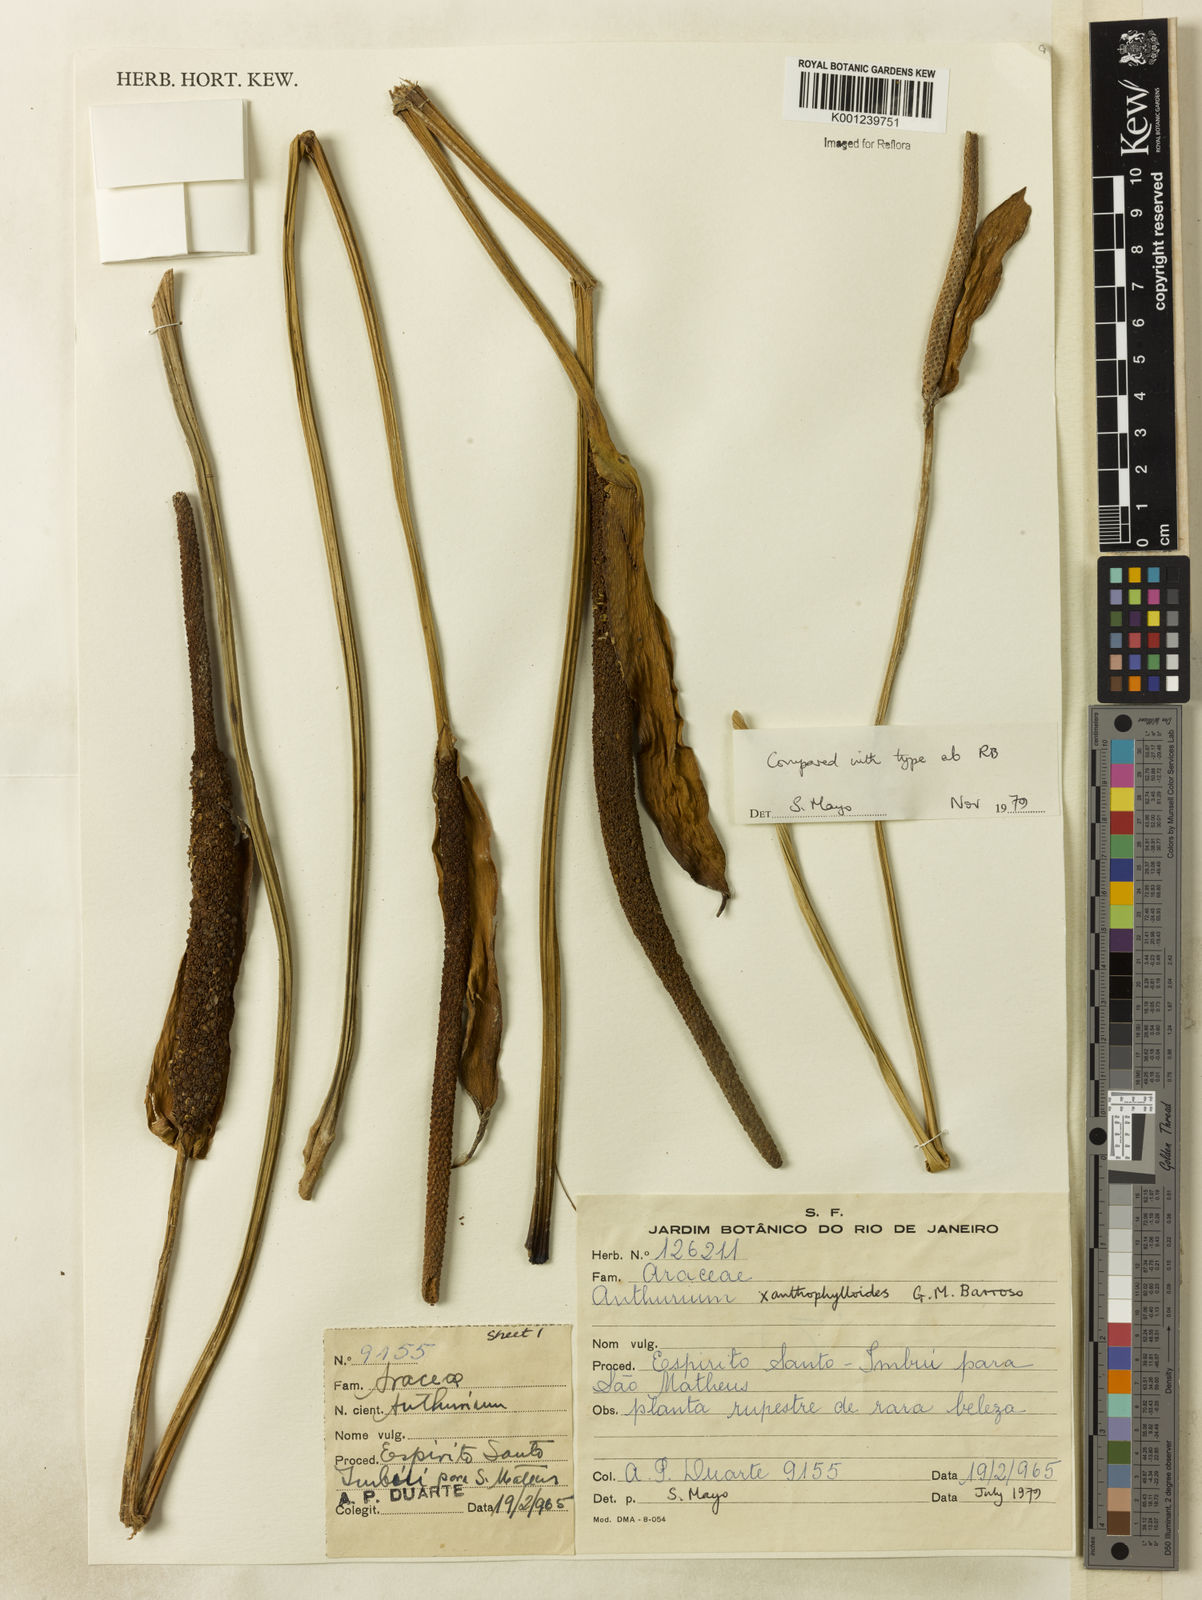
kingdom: Plantae
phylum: Tracheophyta
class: Liliopsida
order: Alismatales
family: Araceae
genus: Anthurium
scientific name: Anthurium xanthophylloides
